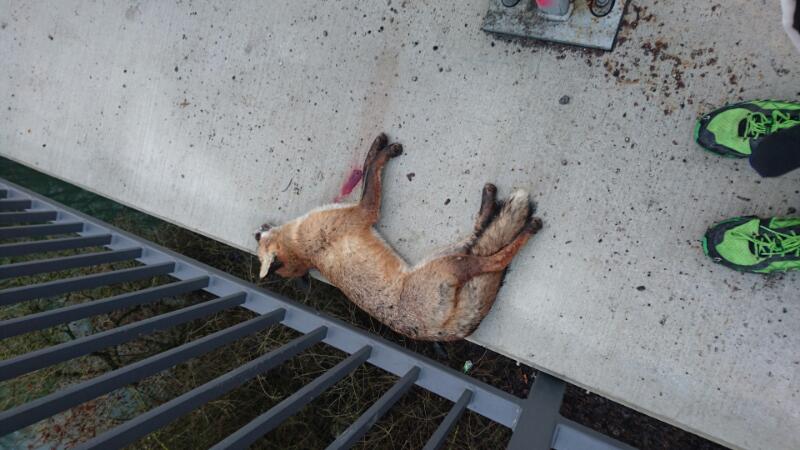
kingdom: Animalia
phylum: Chordata
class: Mammalia
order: Carnivora
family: Canidae
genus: Vulpes
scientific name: Vulpes vulpes
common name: Red fox
